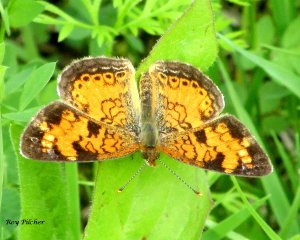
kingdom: Animalia
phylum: Arthropoda
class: Insecta
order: Lepidoptera
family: Nymphalidae
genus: Phyciodes
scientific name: Phyciodes tharos
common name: Northern Crescent
